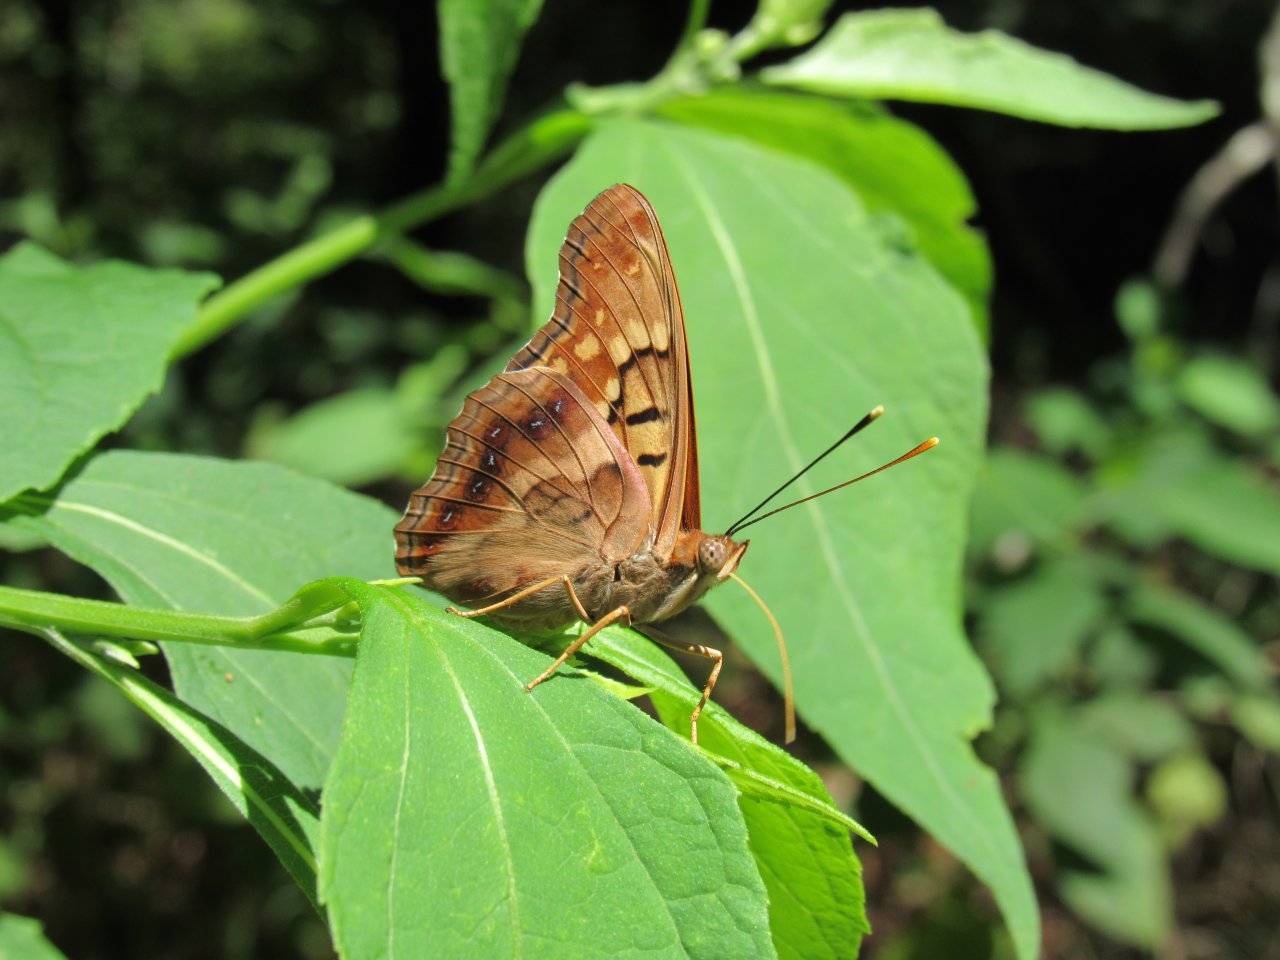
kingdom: Animalia
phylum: Arthropoda
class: Insecta
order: Lepidoptera
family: Nymphalidae
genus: Asterocampa
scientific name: Asterocampa clyton
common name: Tawny Emperor
